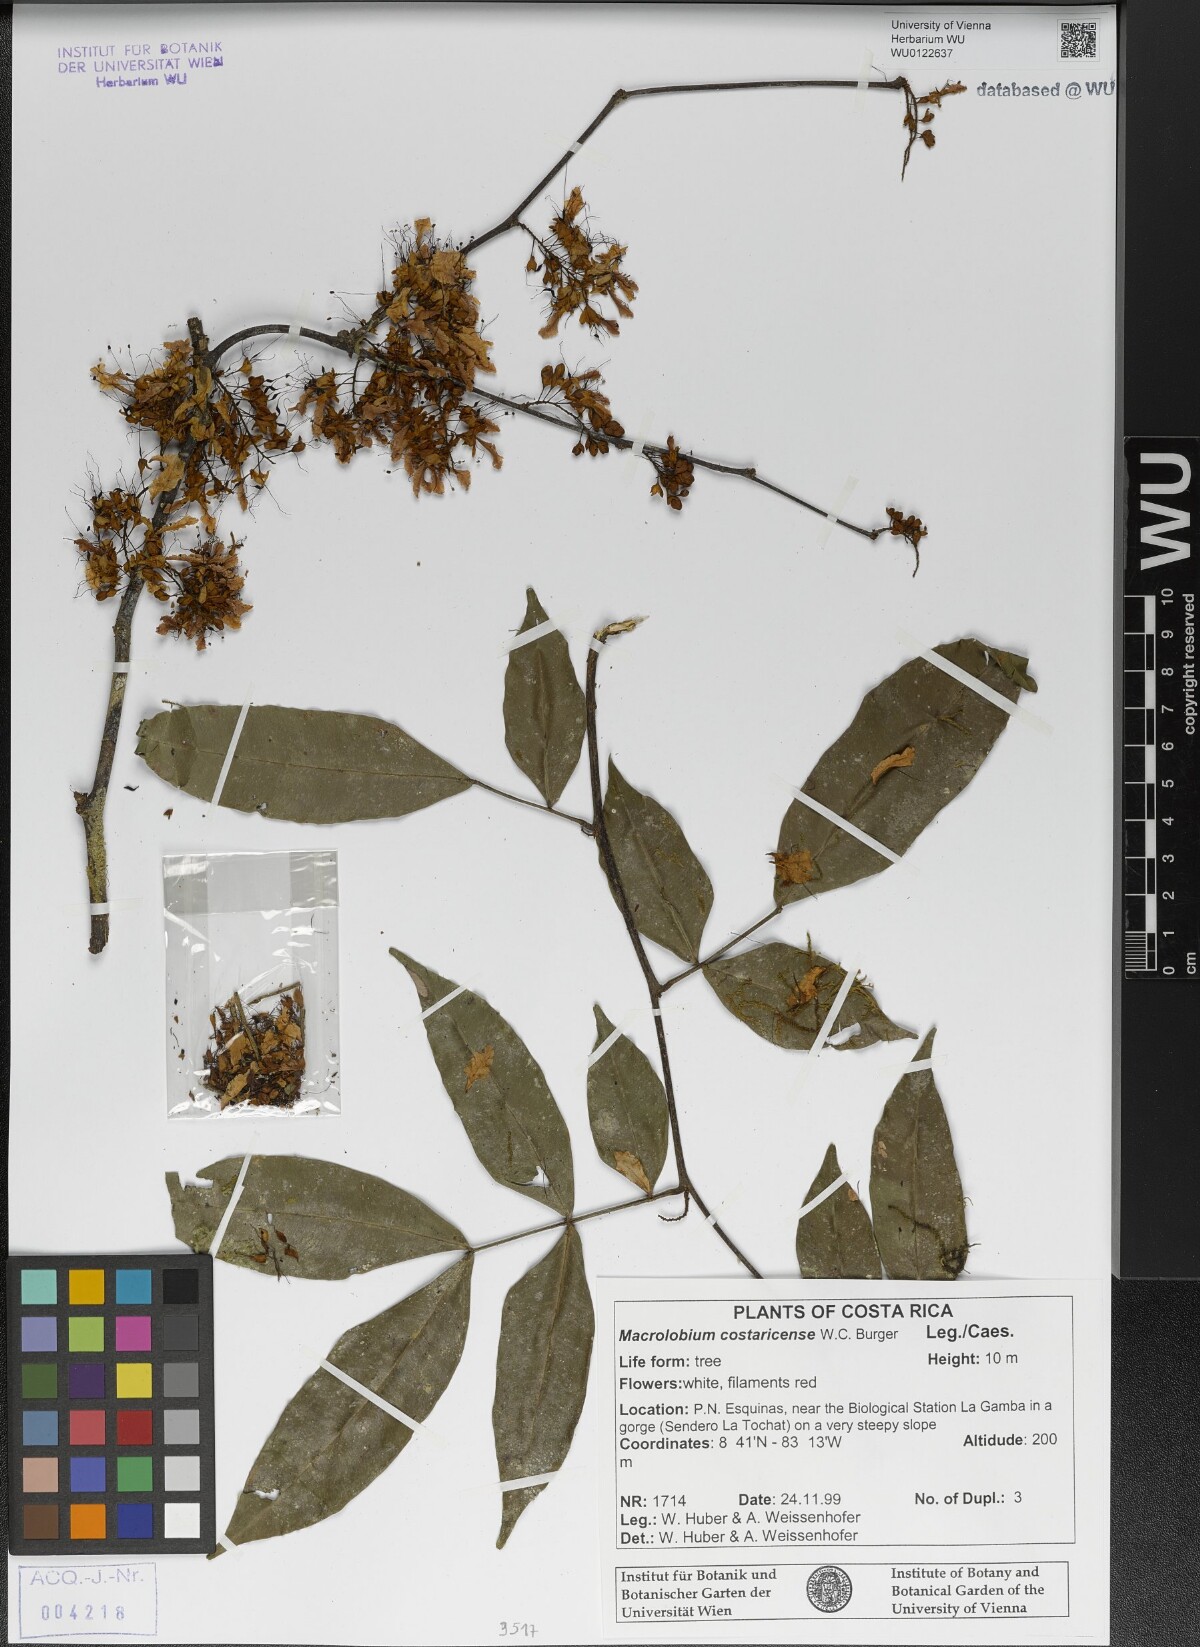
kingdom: Plantae
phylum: Tracheophyta
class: Magnoliopsida
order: Fabales
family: Fabaceae
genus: Macrolobium
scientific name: Macrolobium costaricense
